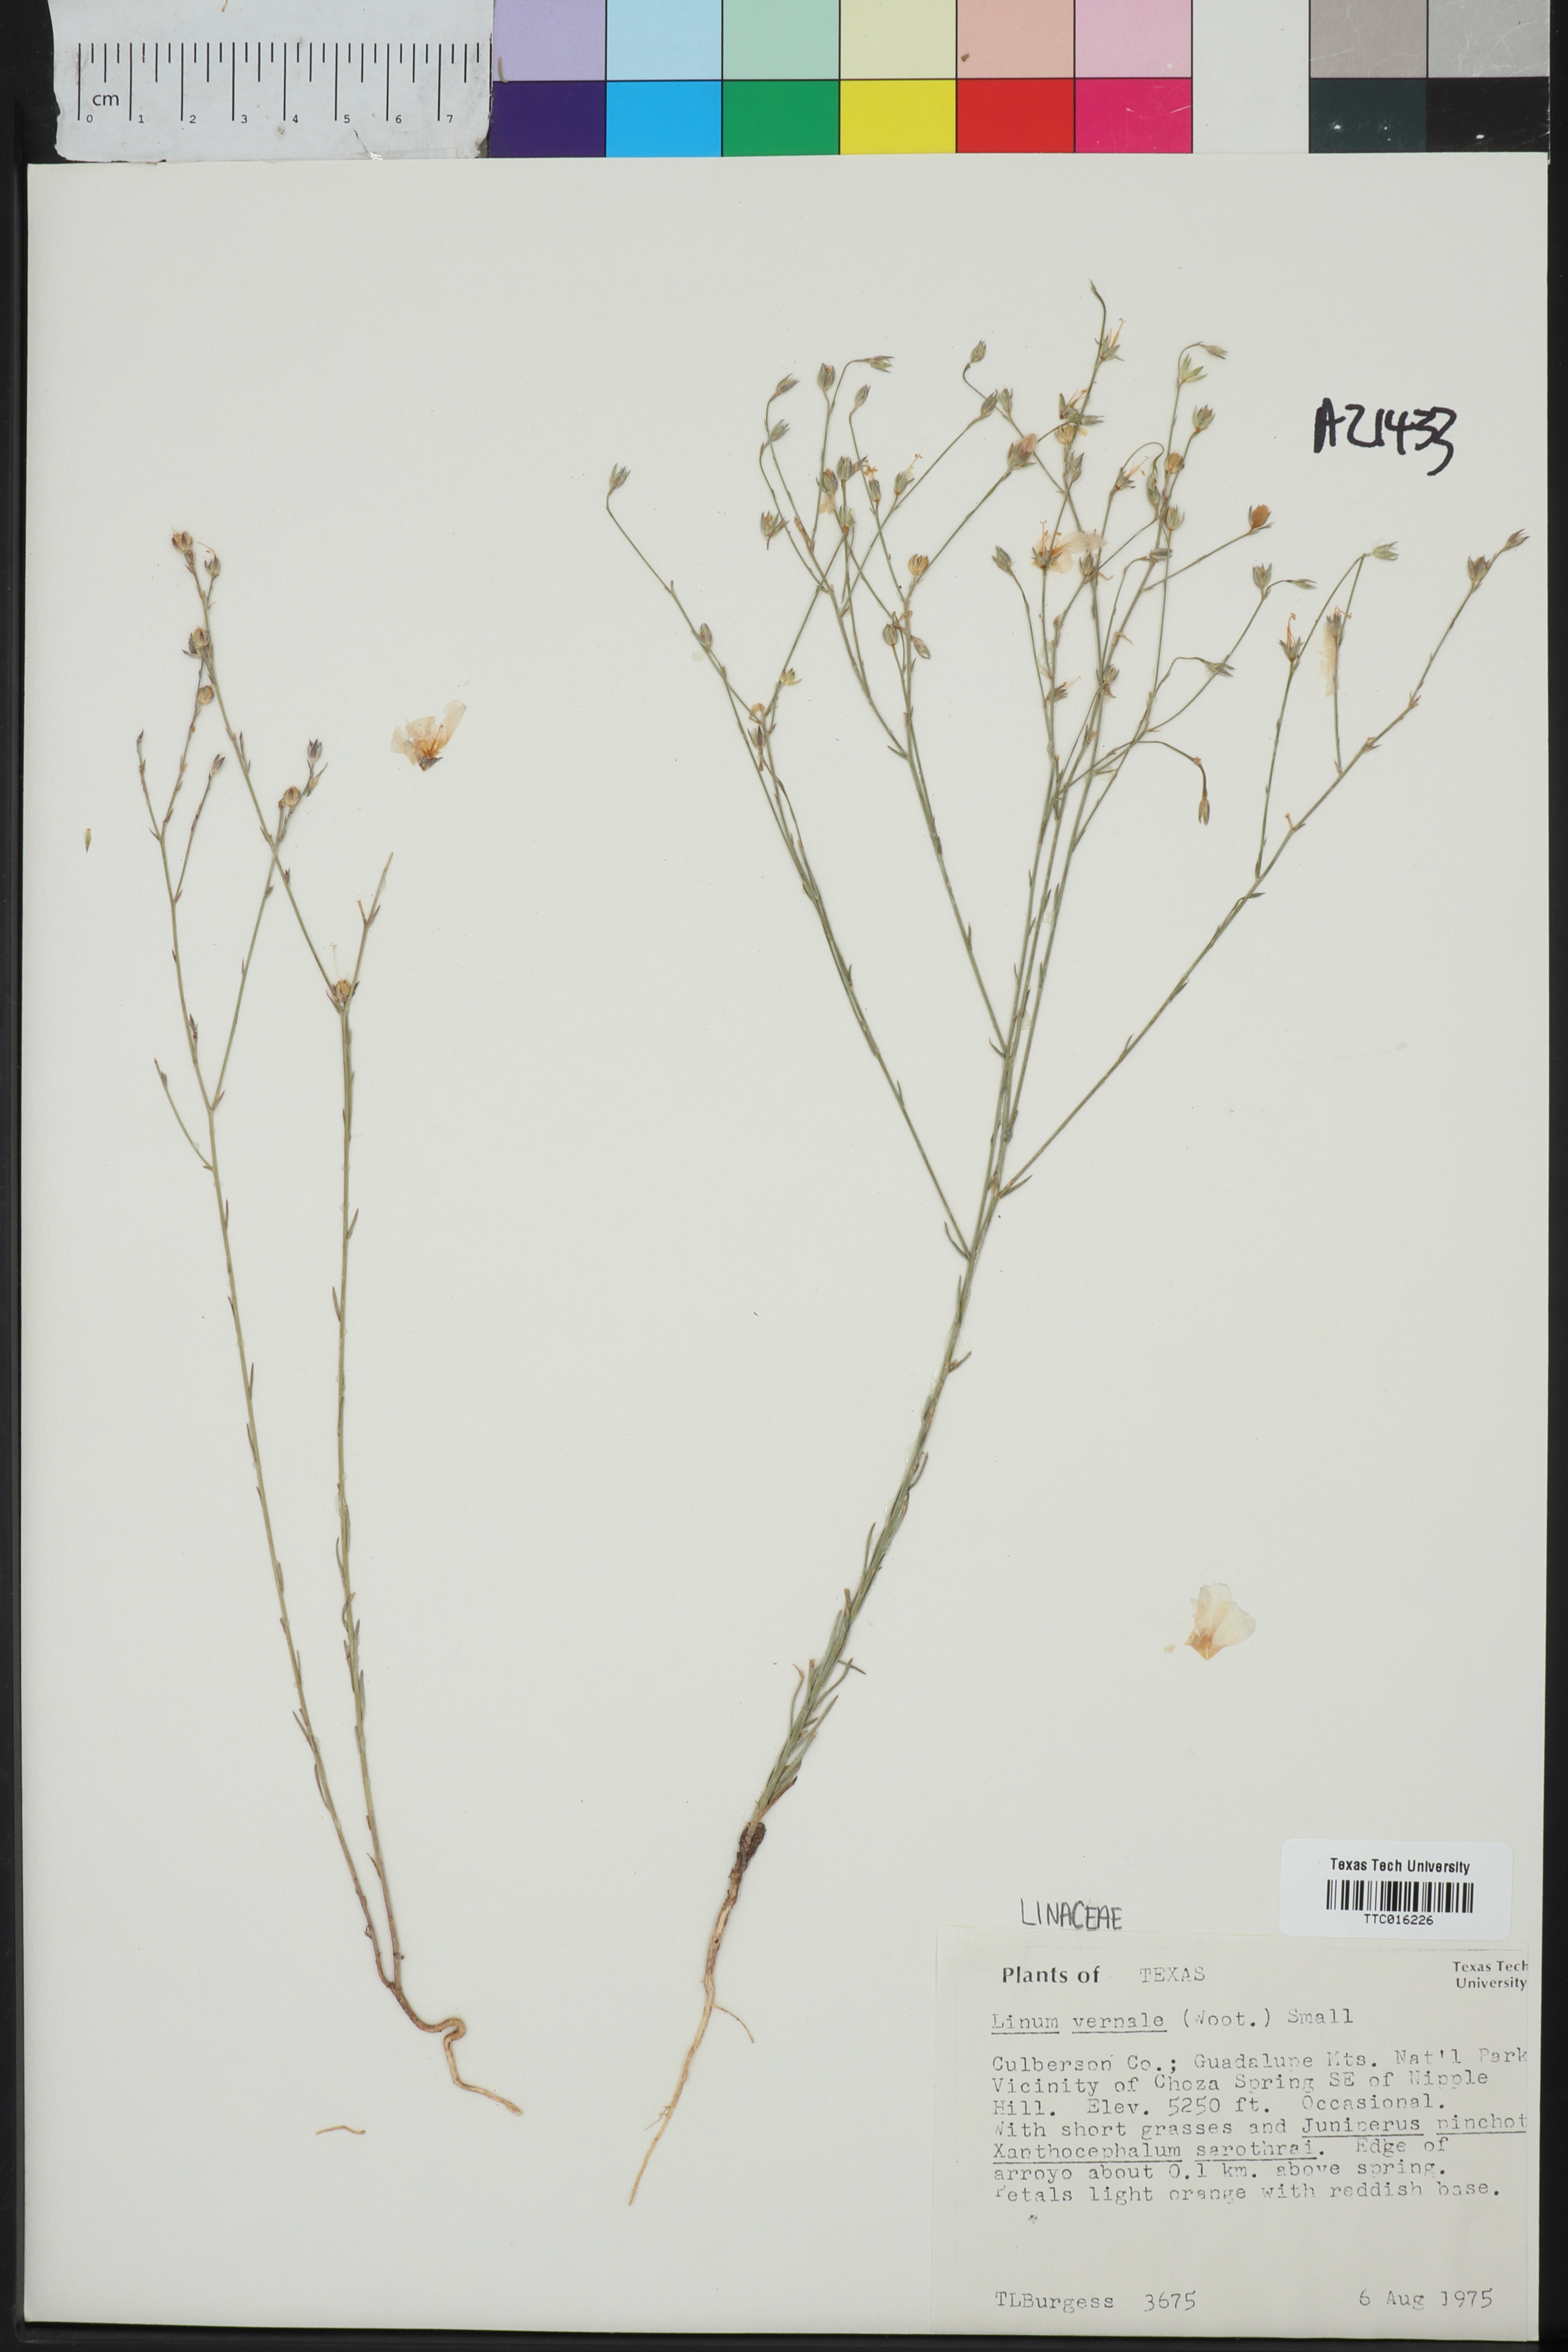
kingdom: Plantae
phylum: Tracheophyta
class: Magnoliopsida
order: Malpighiales
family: Linaceae
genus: Linum
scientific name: Linum vernale
